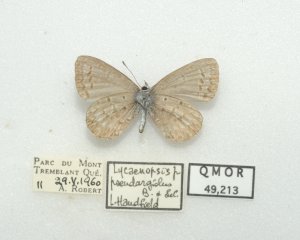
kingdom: Animalia
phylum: Arthropoda
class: Insecta
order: Lepidoptera
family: Lycaenidae
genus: Celastrina
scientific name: Celastrina lucia
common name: Northern Spring Azure
